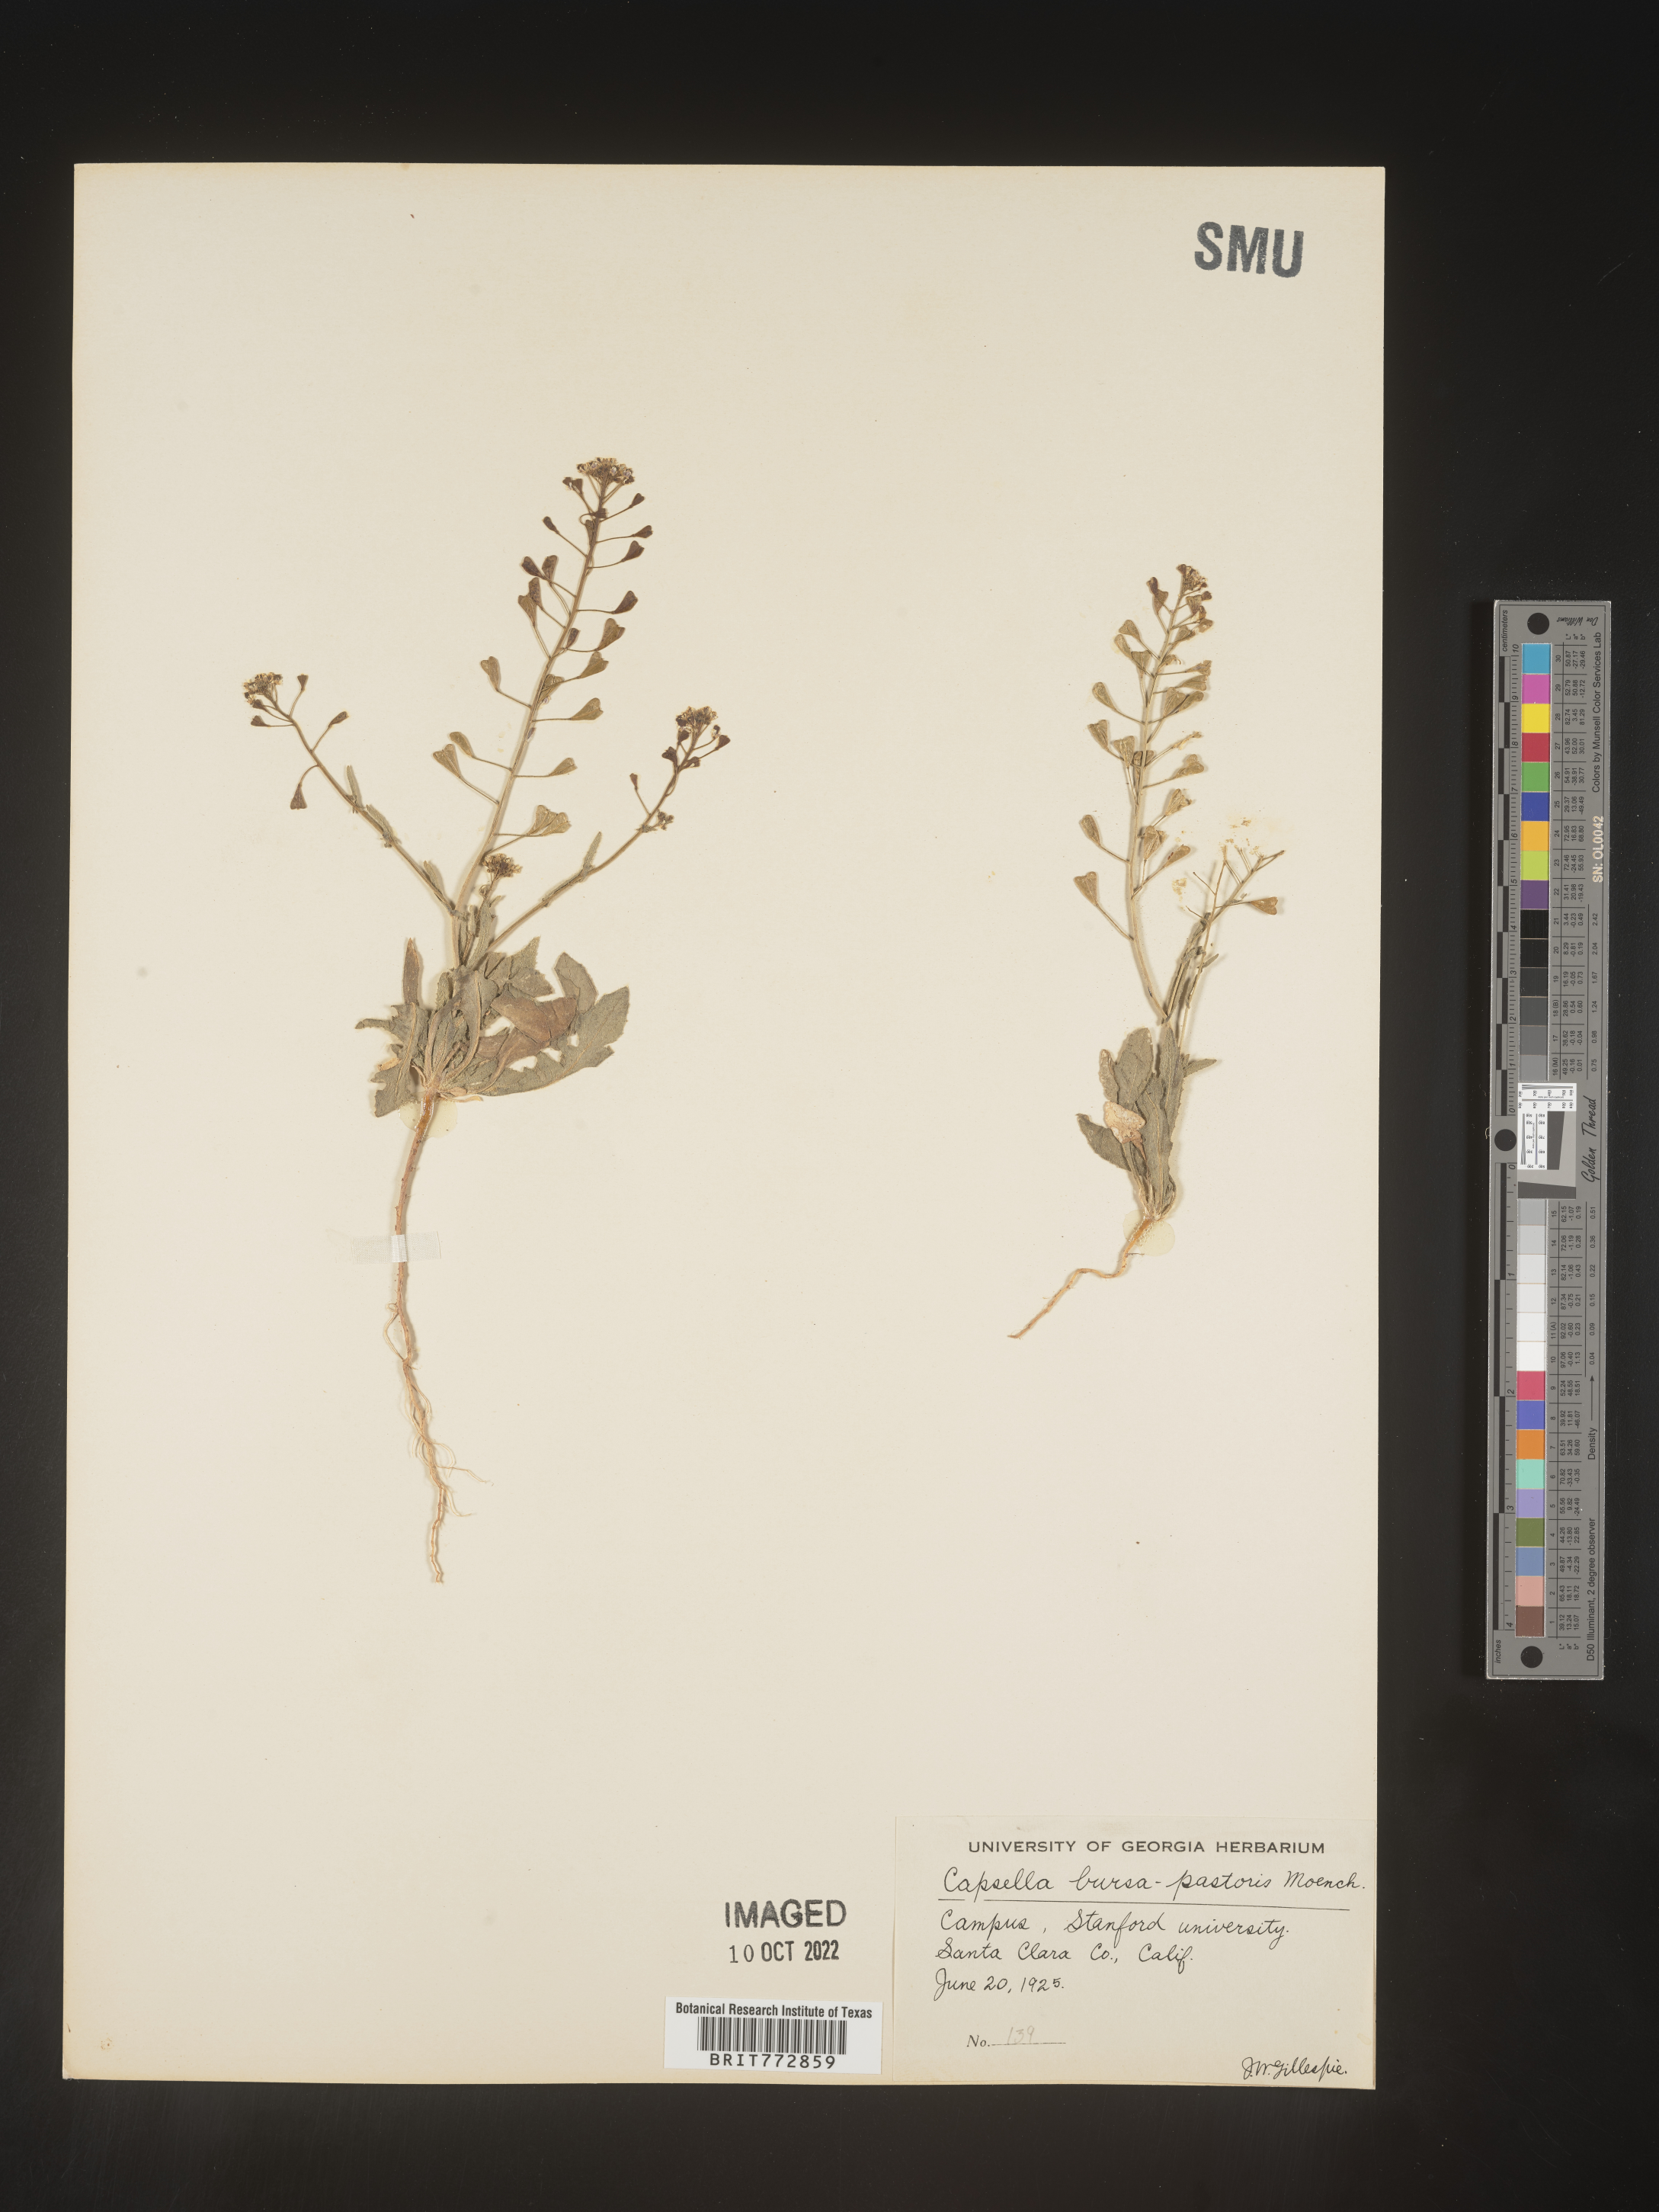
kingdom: Plantae
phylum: Tracheophyta
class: Magnoliopsida
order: Brassicales
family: Brassicaceae
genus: Capsella
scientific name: Capsella bursa-pastoris
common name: Shepherd's purse
